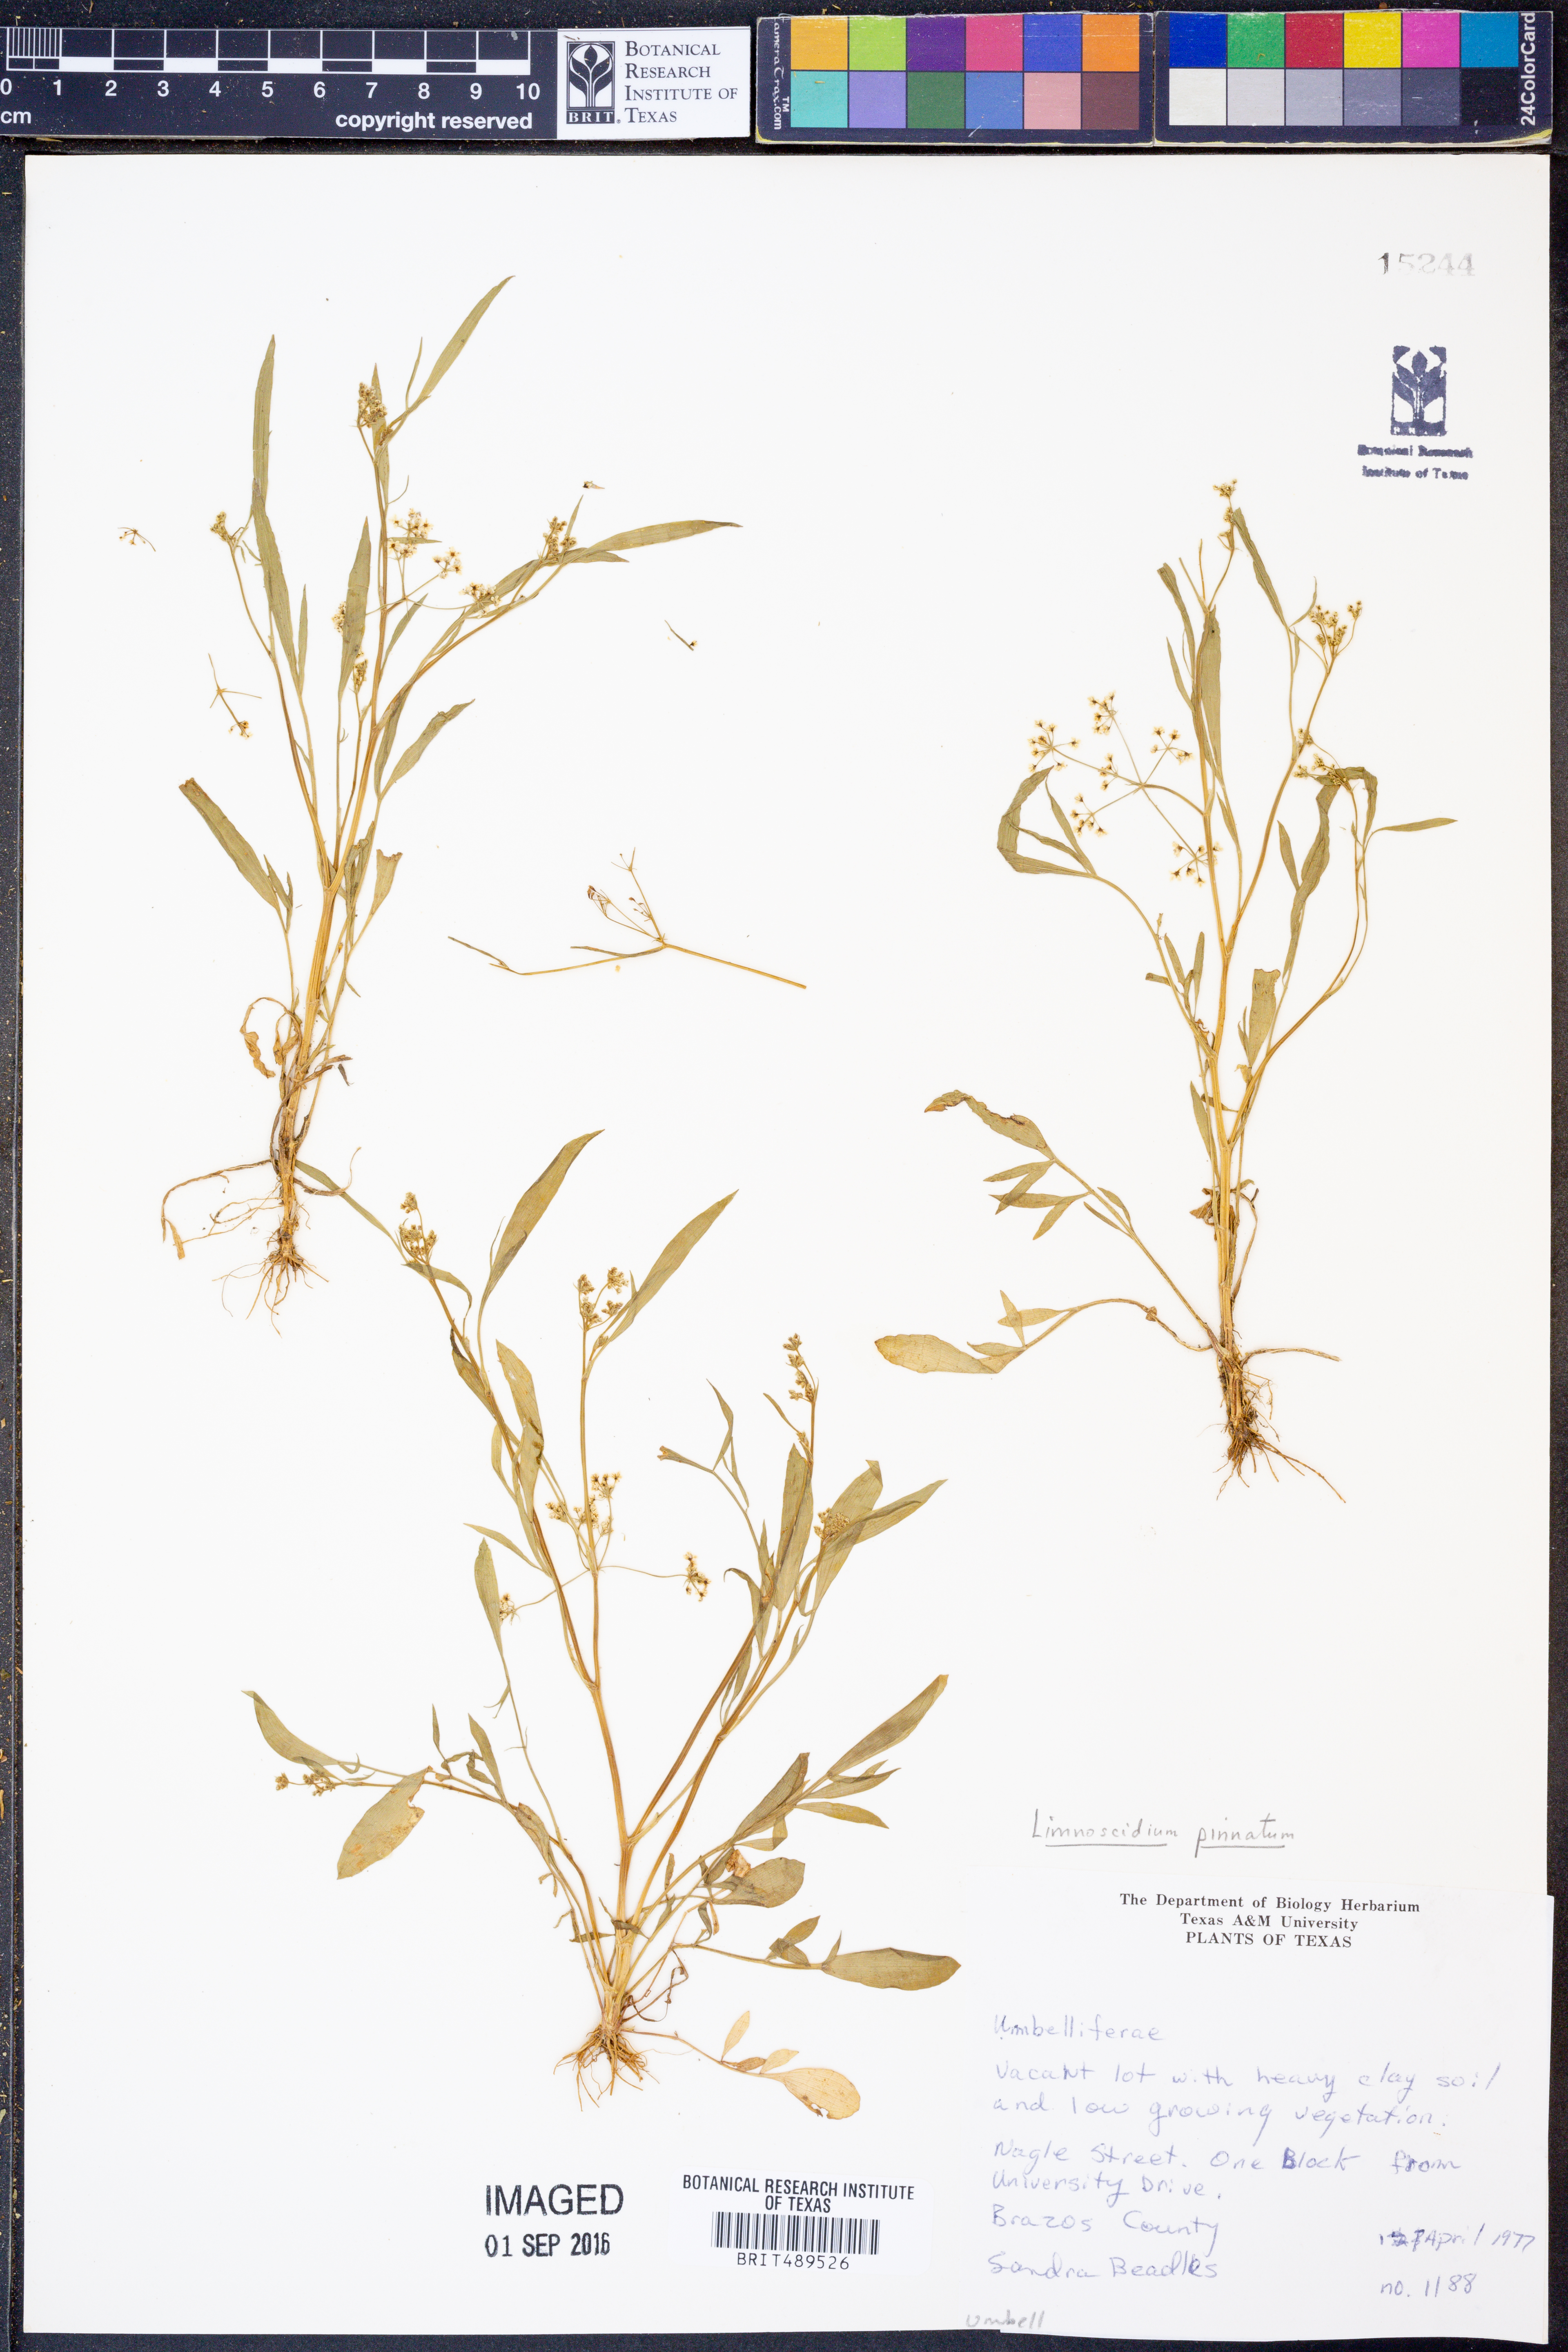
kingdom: Plantae
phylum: Tracheophyta
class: Magnoliopsida
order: Apiales
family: Apiaceae
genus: Limnosciadium
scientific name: Limnosciadium pinnatum
